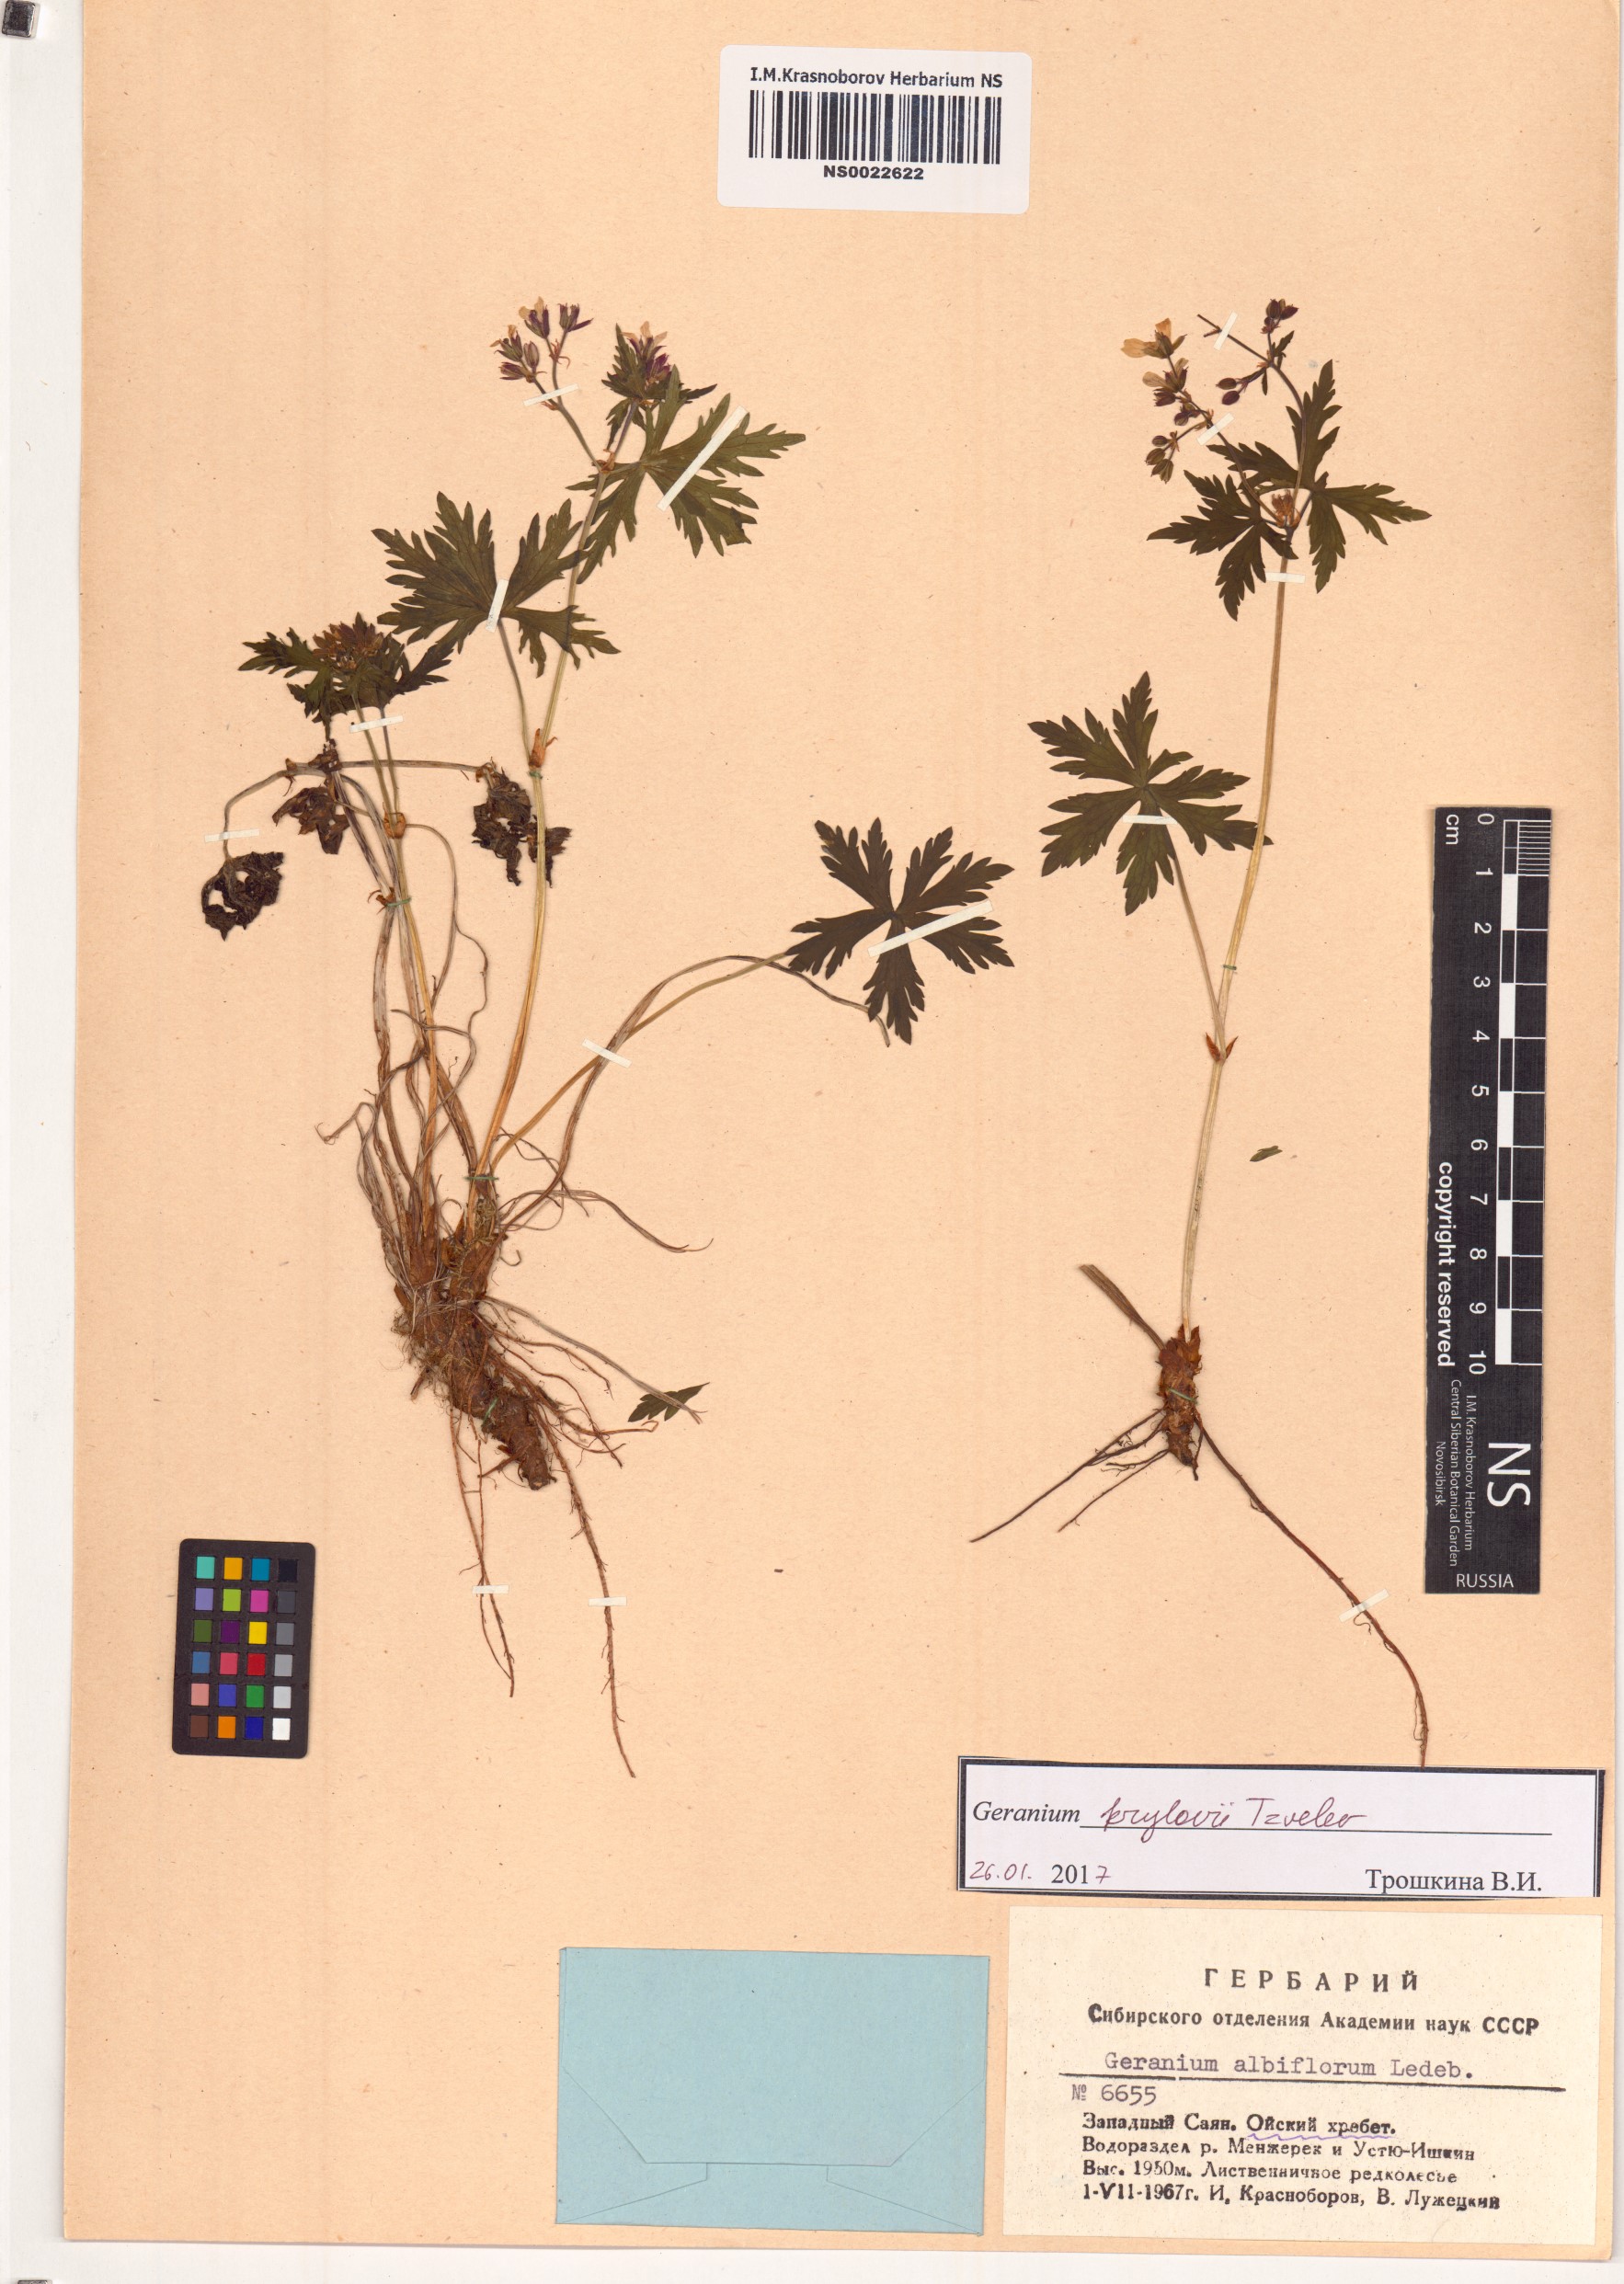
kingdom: Plantae
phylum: Tracheophyta
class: Magnoliopsida
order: Geraniales
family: Geraniaceae
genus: Geranium
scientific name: Geranium sylvaticum
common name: Wood crane's-bill
